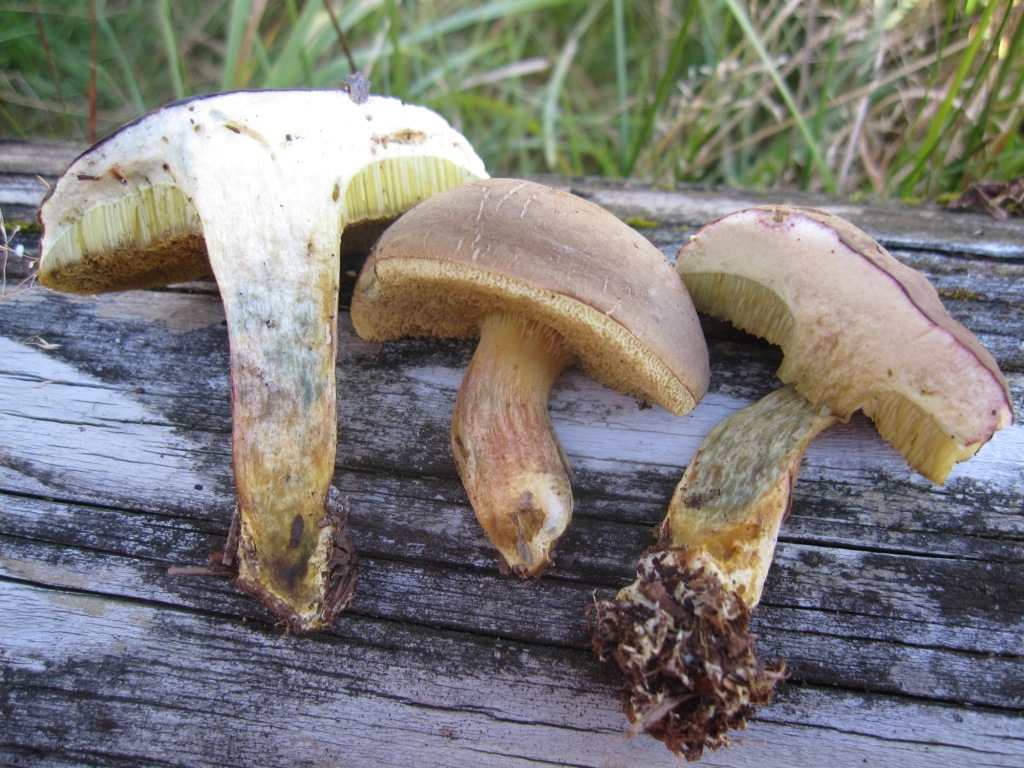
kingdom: Fungi
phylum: Basidiomycota
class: Agaricomycetes
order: Boletales
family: Boletaceae
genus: Xerocomellus
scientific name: Xerocomellus pruinatus
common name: dugget rørhat
